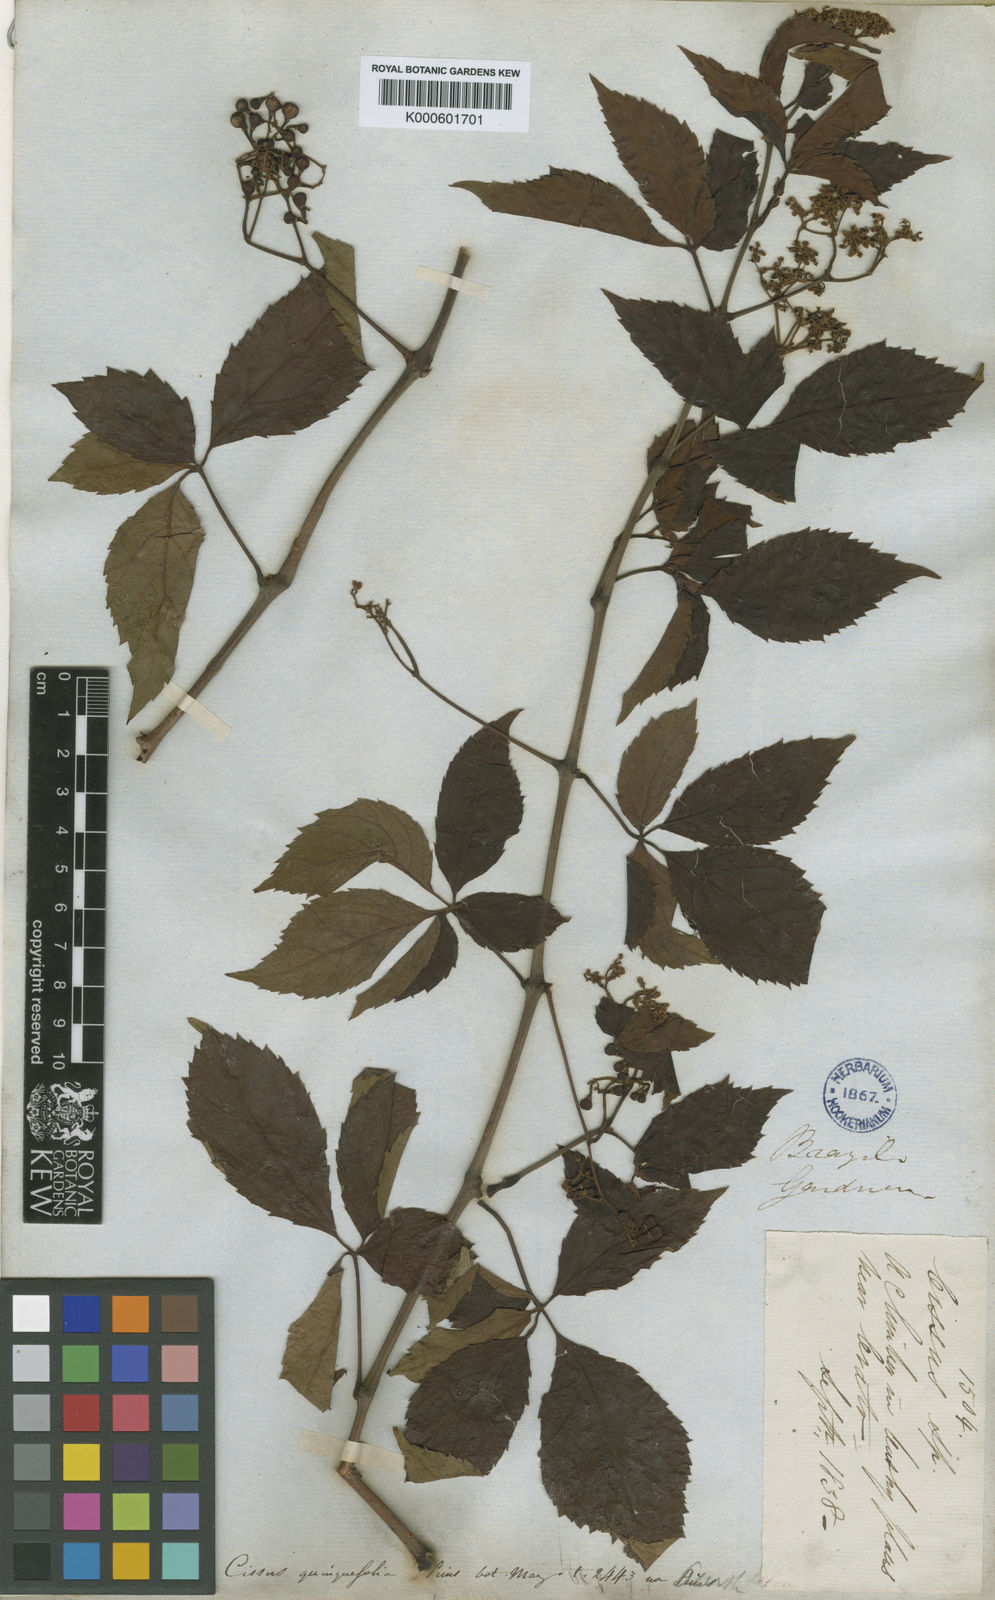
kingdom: Plantae
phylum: Tracheophyta
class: Magnoliopsida
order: Vitales
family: Vitaceae
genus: Clematicissus
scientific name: Clematicissus simsiana
